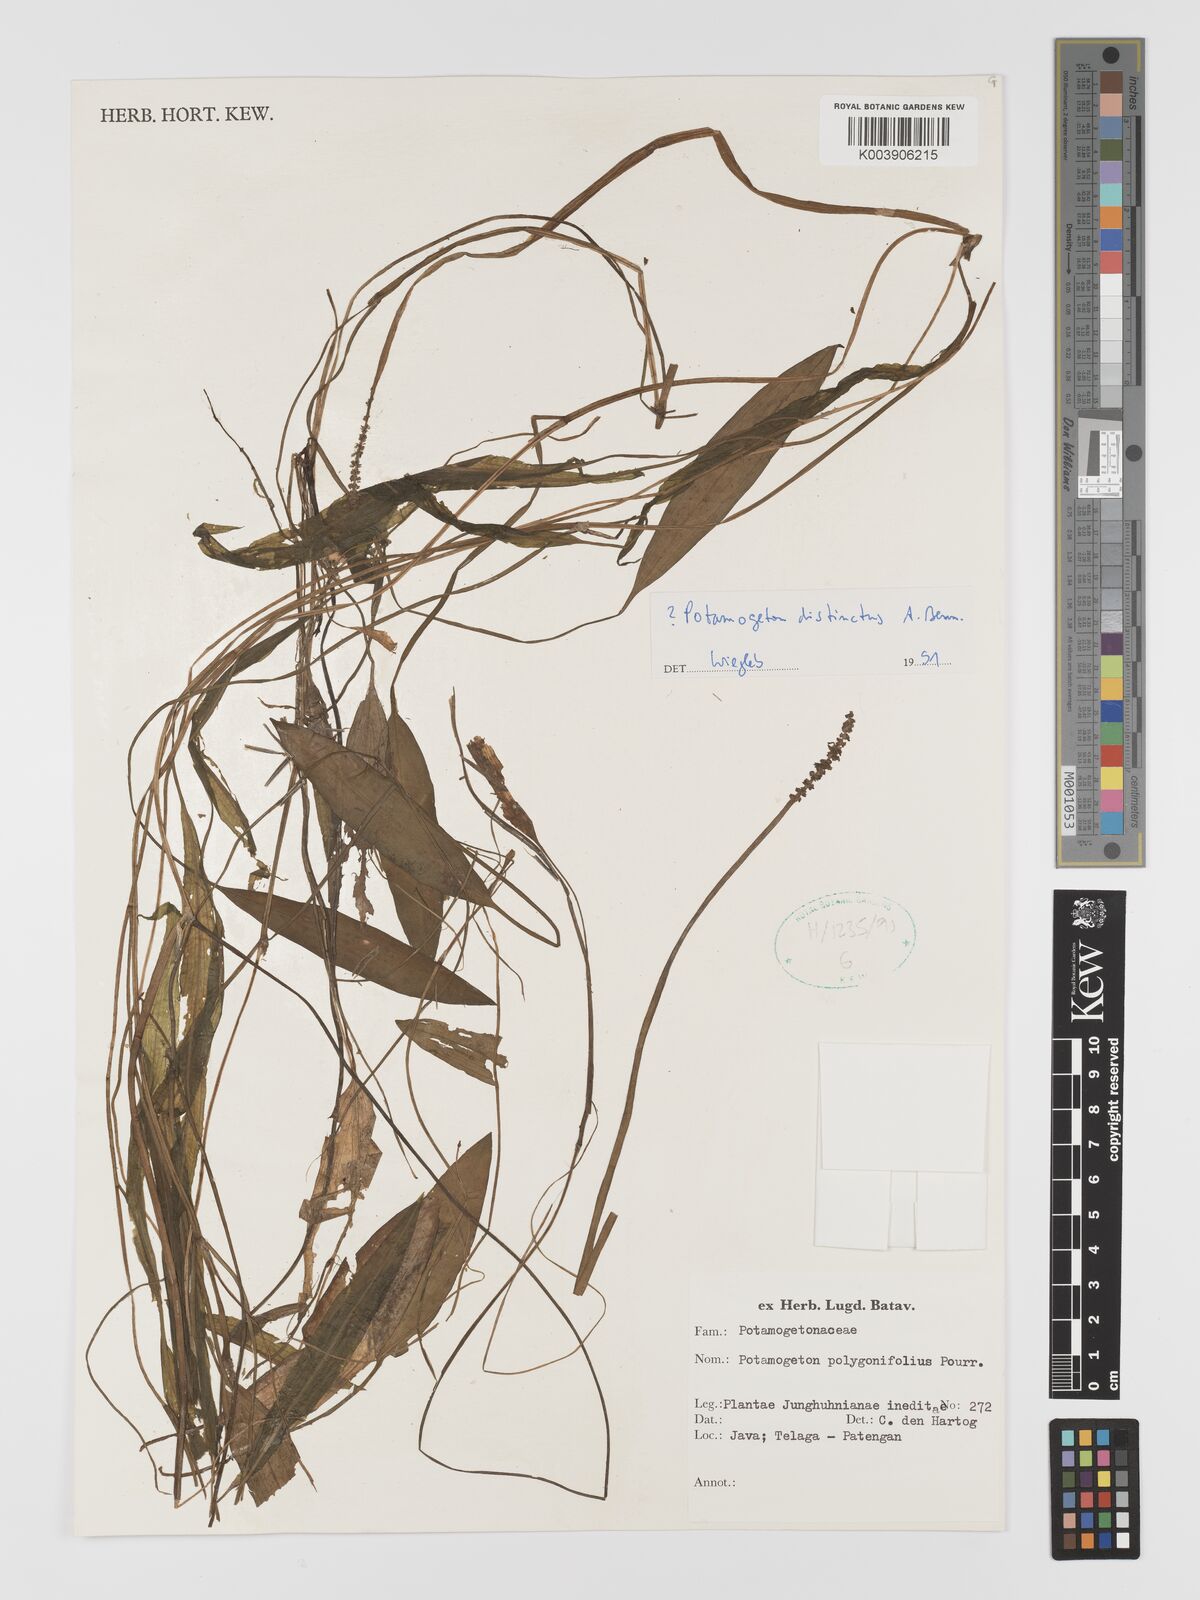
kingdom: Plantae
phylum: Tracheophyta
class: Liliopsida
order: Alismatales
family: Potamogetonaceae
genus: Potamogeton
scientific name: Potamogeton distinctus
